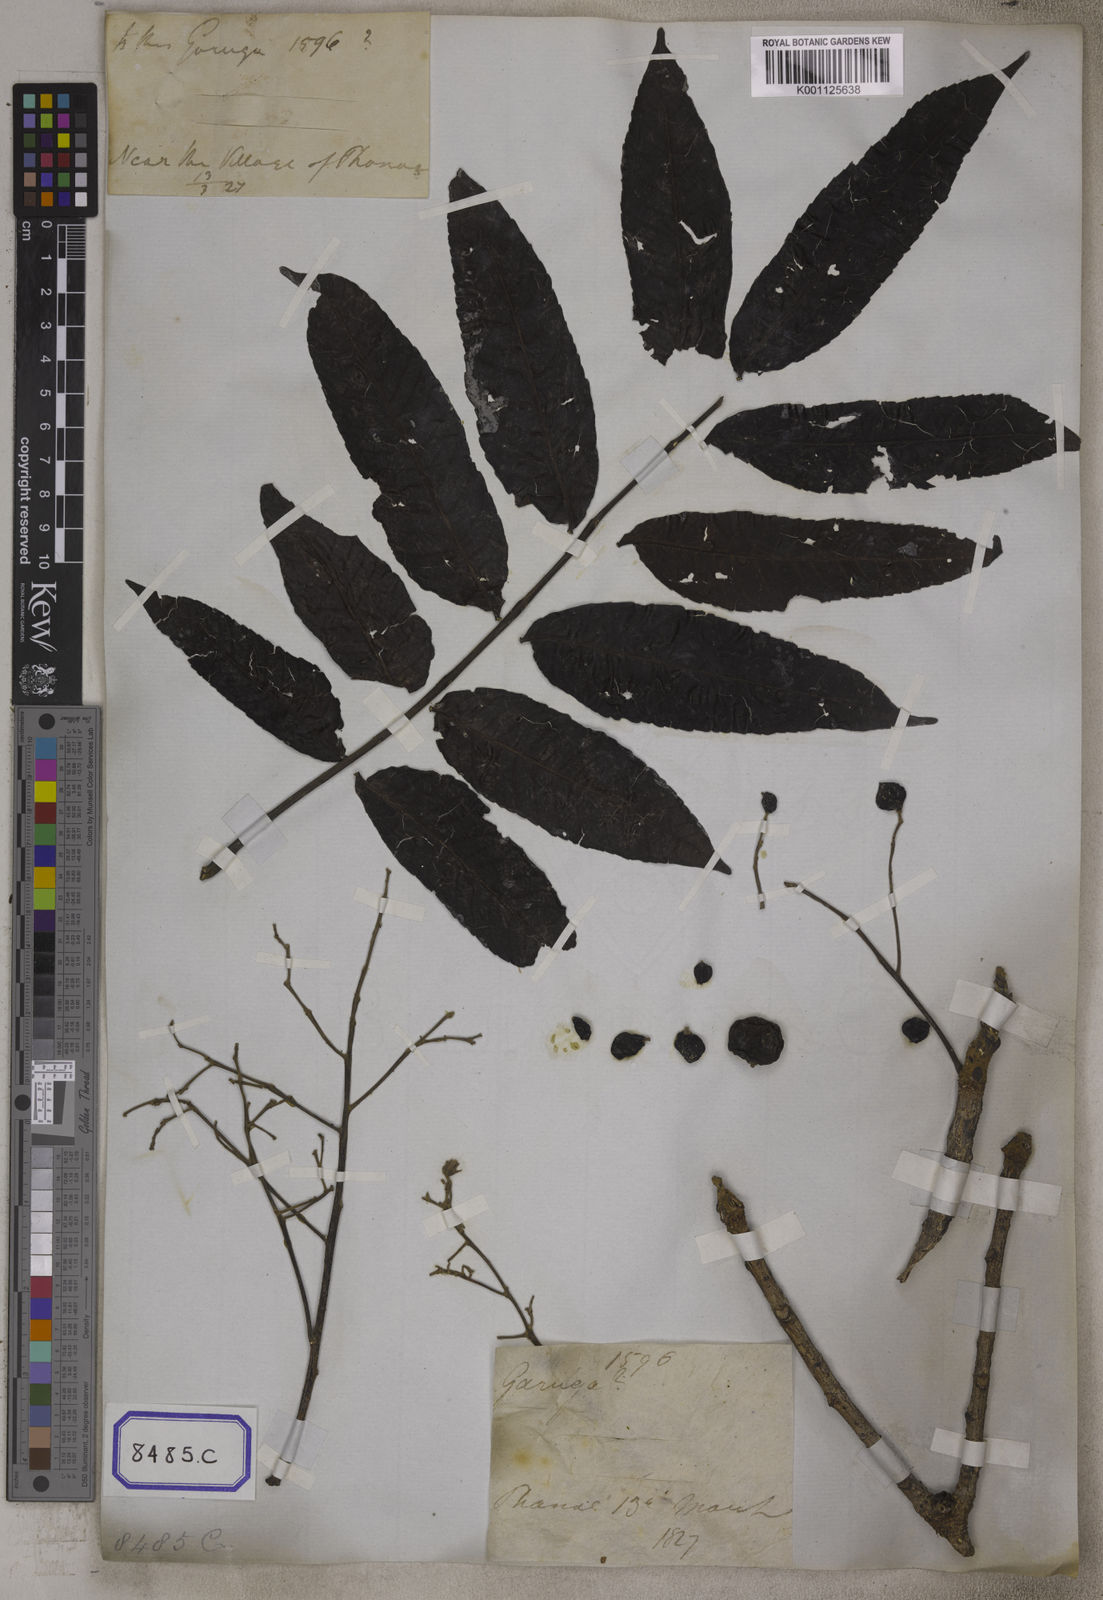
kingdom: Plantae
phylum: Tracheophyta
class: Magnoliopsida
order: Sapindales
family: Burseraceae
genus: Garuga
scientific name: Garuga pinnata
